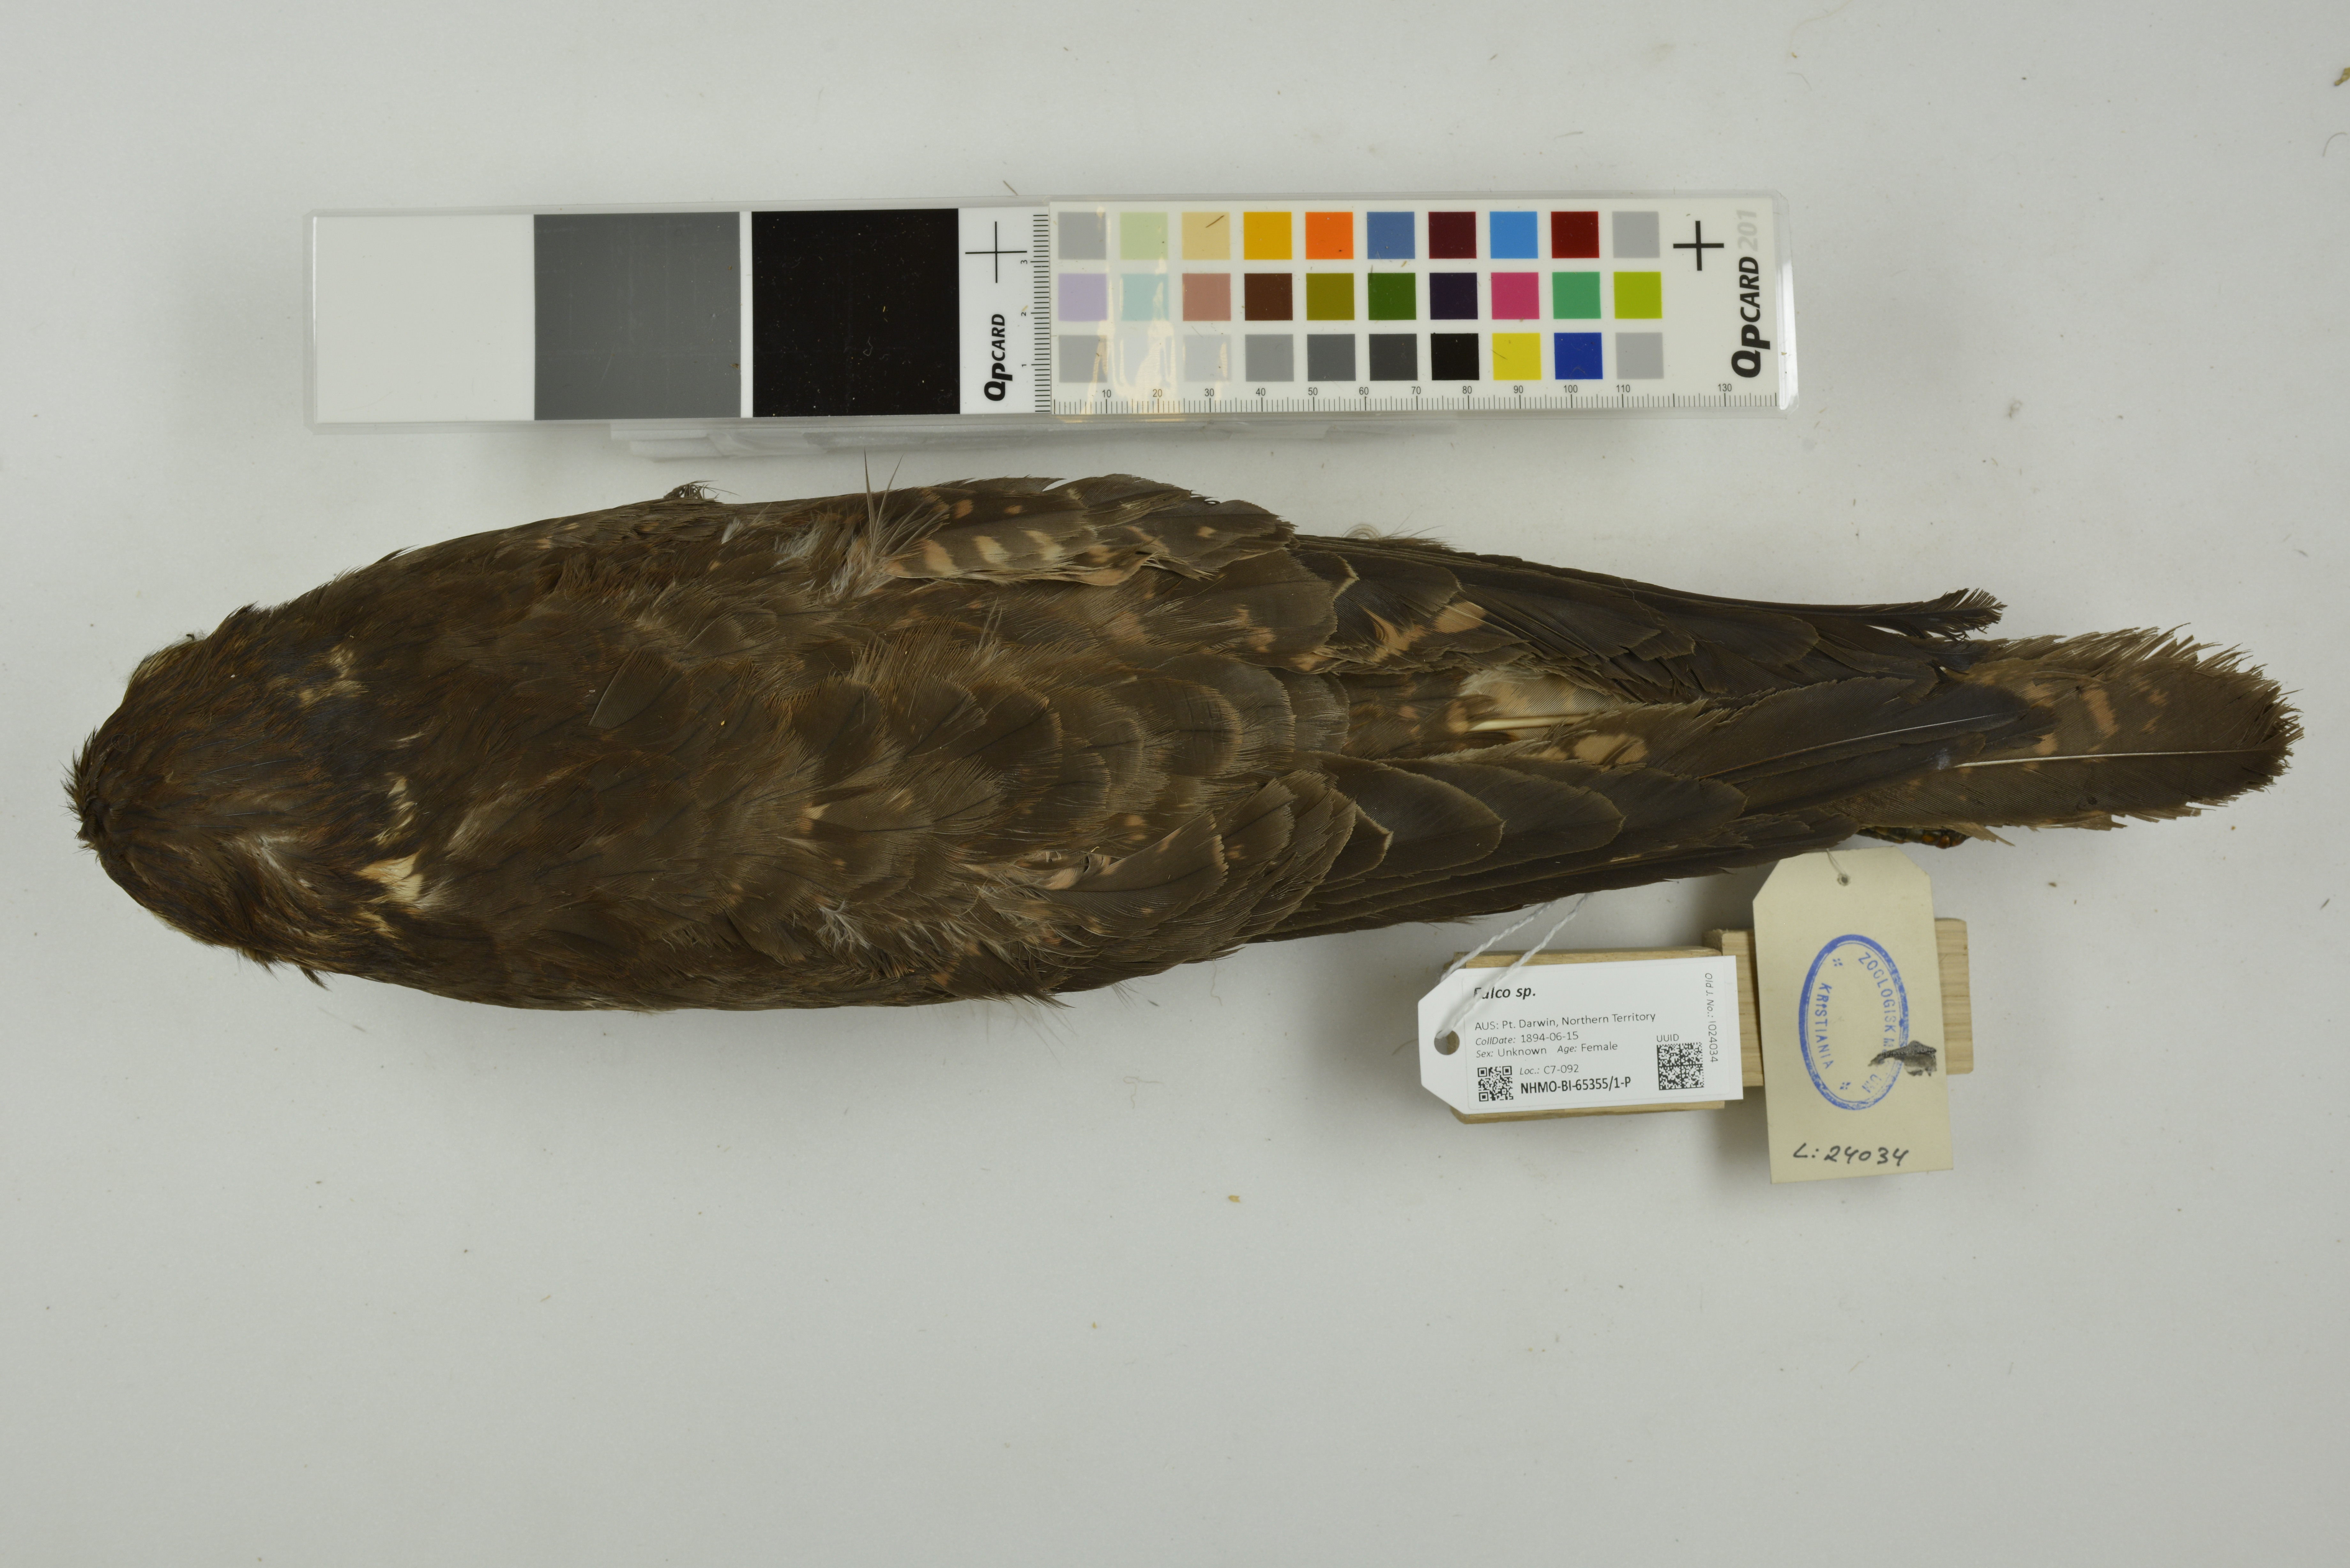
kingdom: Animalia
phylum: Chordata
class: Aves
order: Falconiformes
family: Falconidae
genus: Falco
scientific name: Falco berigora
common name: Brown falcon
